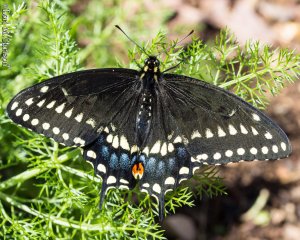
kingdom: Animalia
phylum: Arthropoda
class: Insecta
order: Lepidoptera
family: Papilionidae
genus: Papilio
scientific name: Papilio polyxenes
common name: Black Swallowtail
